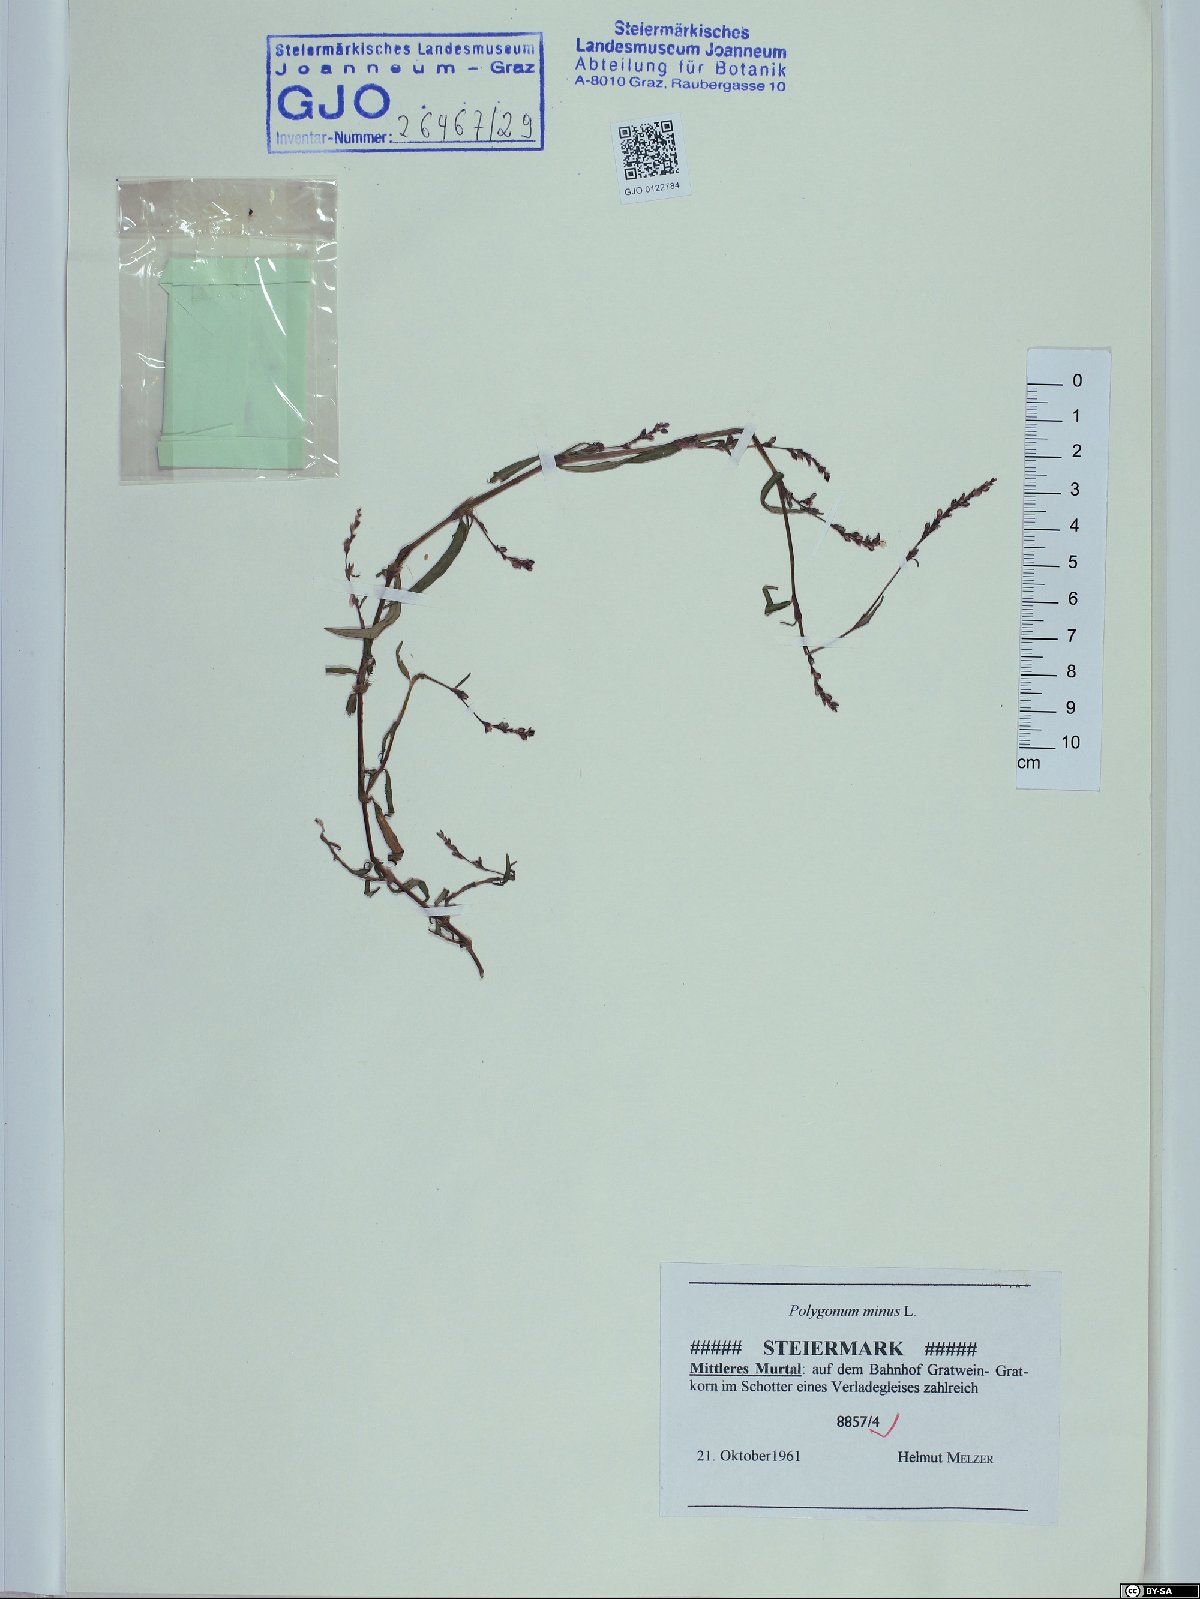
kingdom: Plantae
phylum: Tracheophyta
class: Magnoliopsida
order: Caryophyllales
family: Polygonaceae
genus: Persicaria
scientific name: Persicaria minor
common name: Small water-pepper
